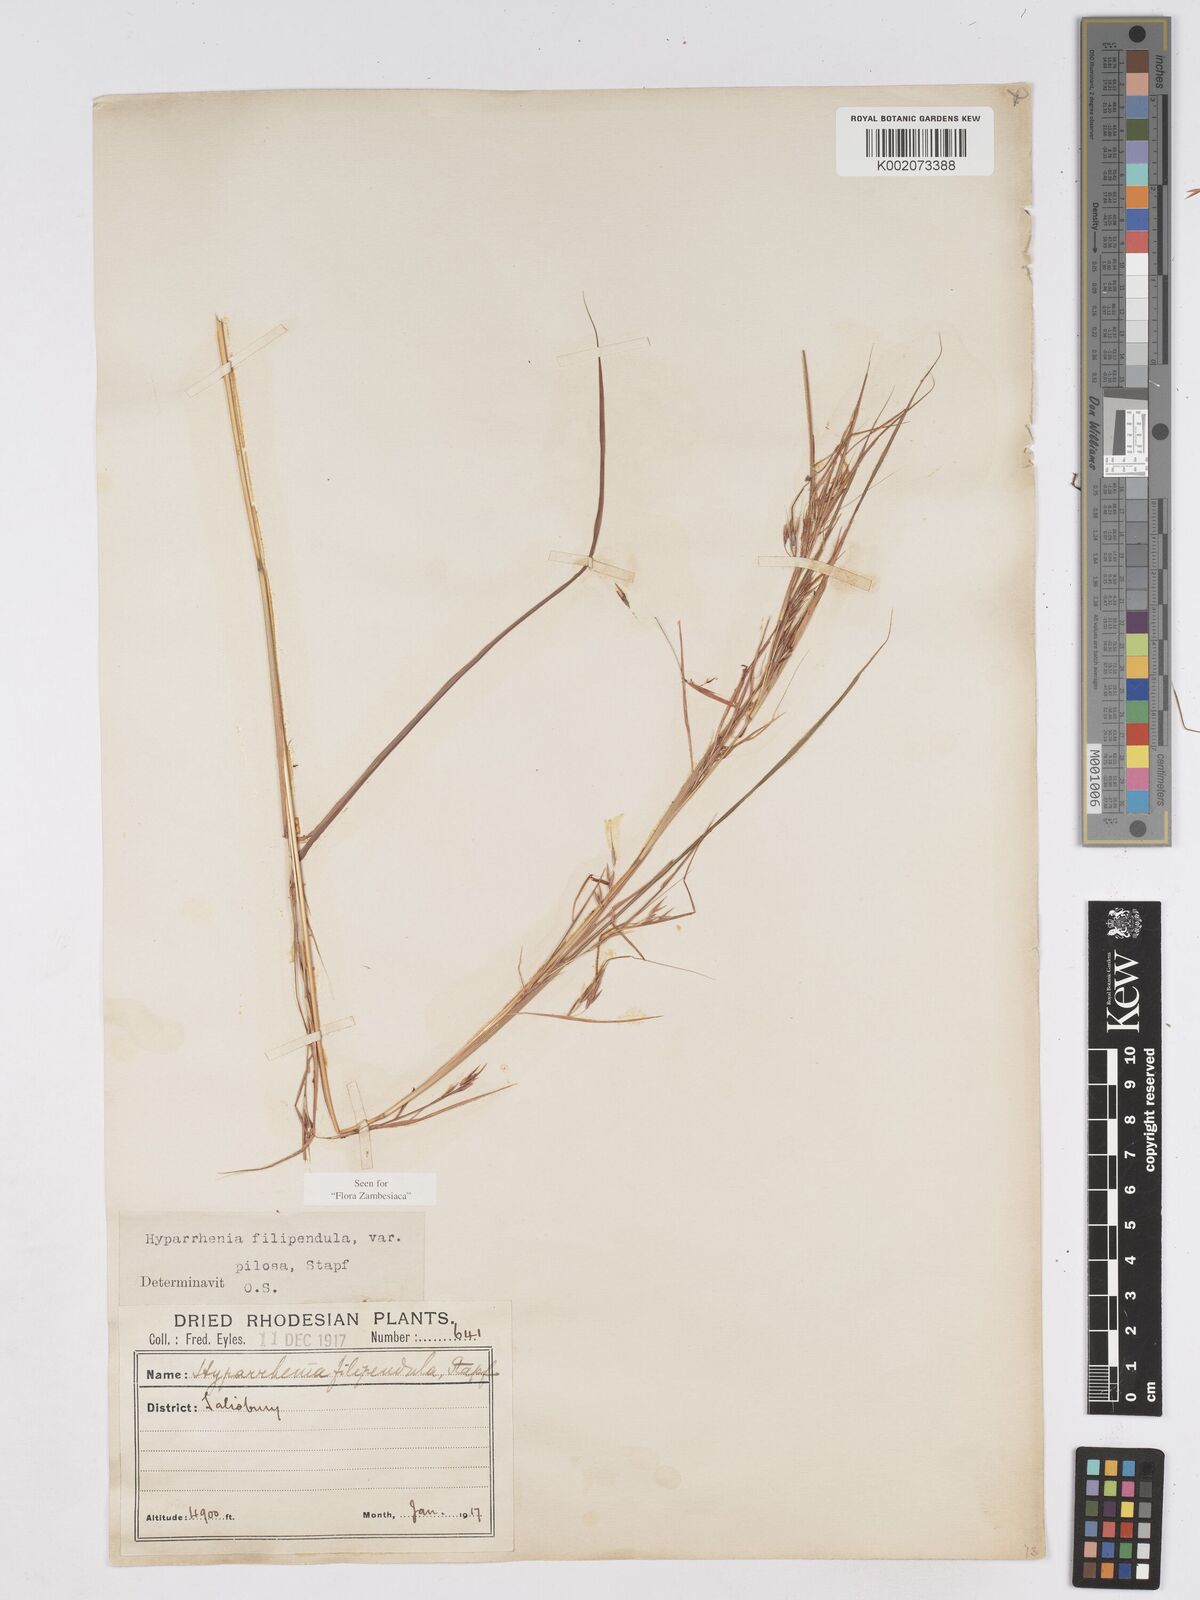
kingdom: Plantae
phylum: Tracheophyta
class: Liliopsida
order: Poales
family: Poaceae
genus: Hyparrhenia
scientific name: Hyparrhenia filipendula
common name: Tambookie grass
